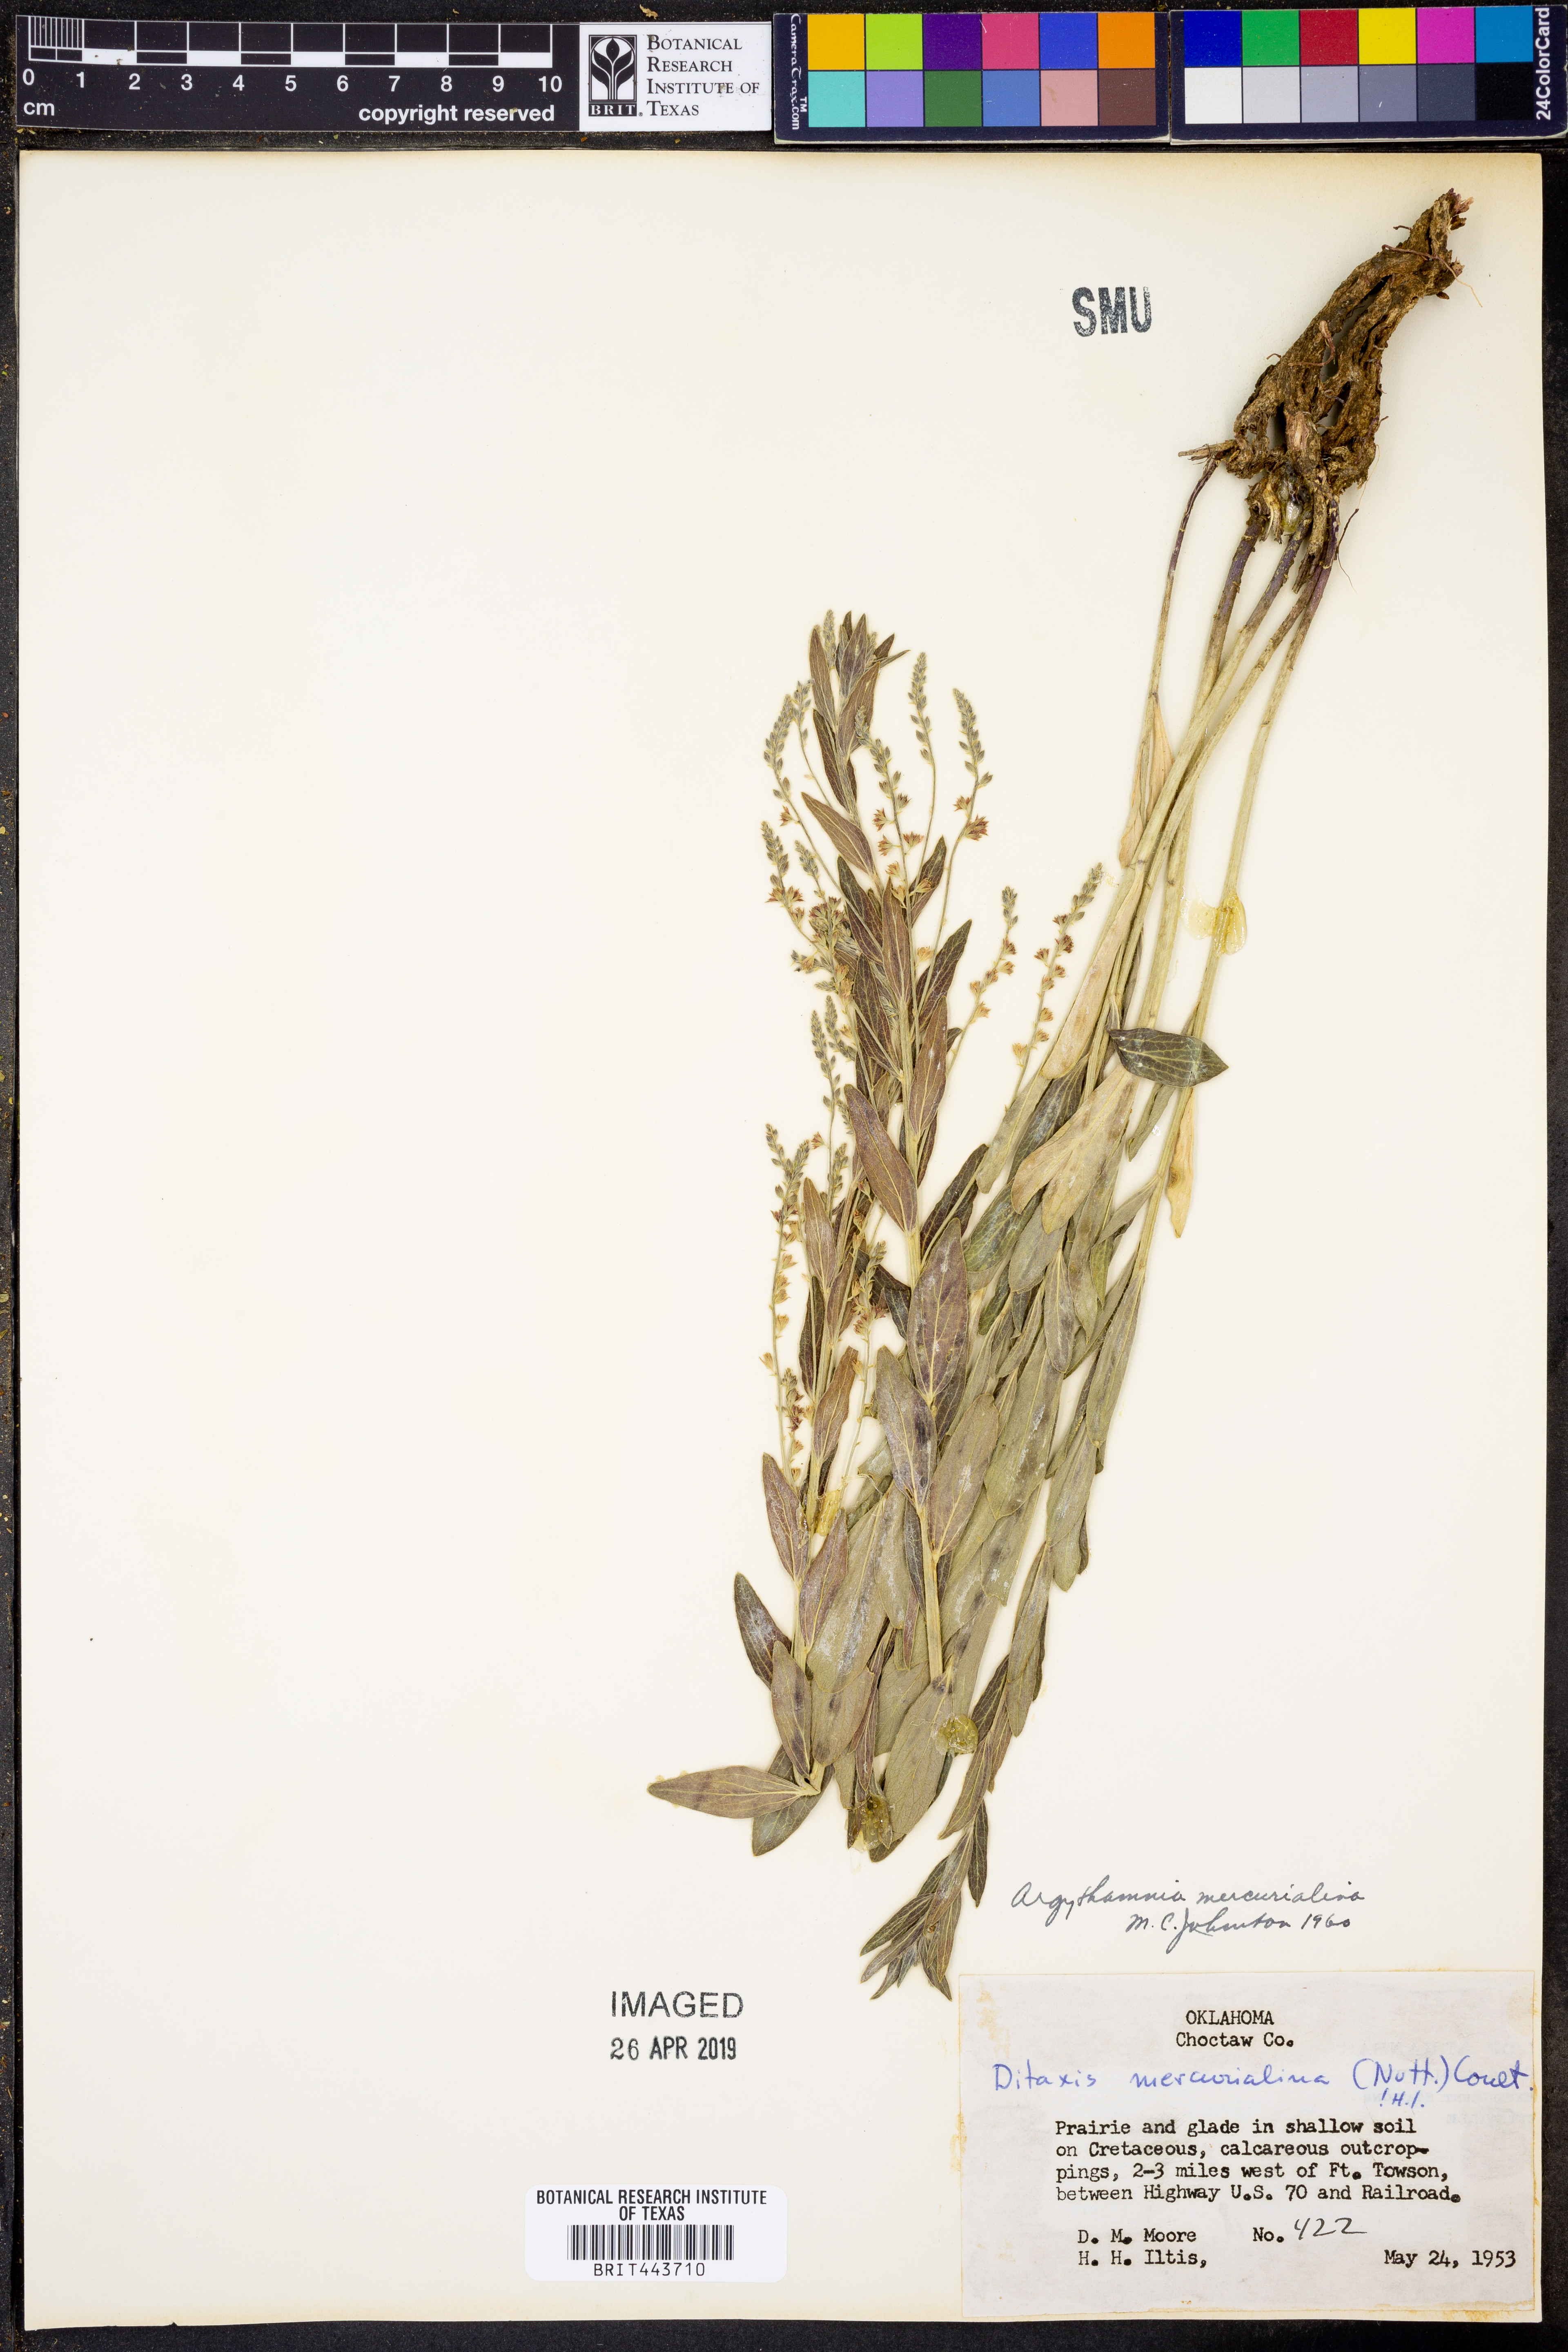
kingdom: Plantae
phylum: Tracheophyta
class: Magnoliopsida
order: Malpighiales
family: Euphorbiaceae
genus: Ditaxis
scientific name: Ditaxis mercurialina
